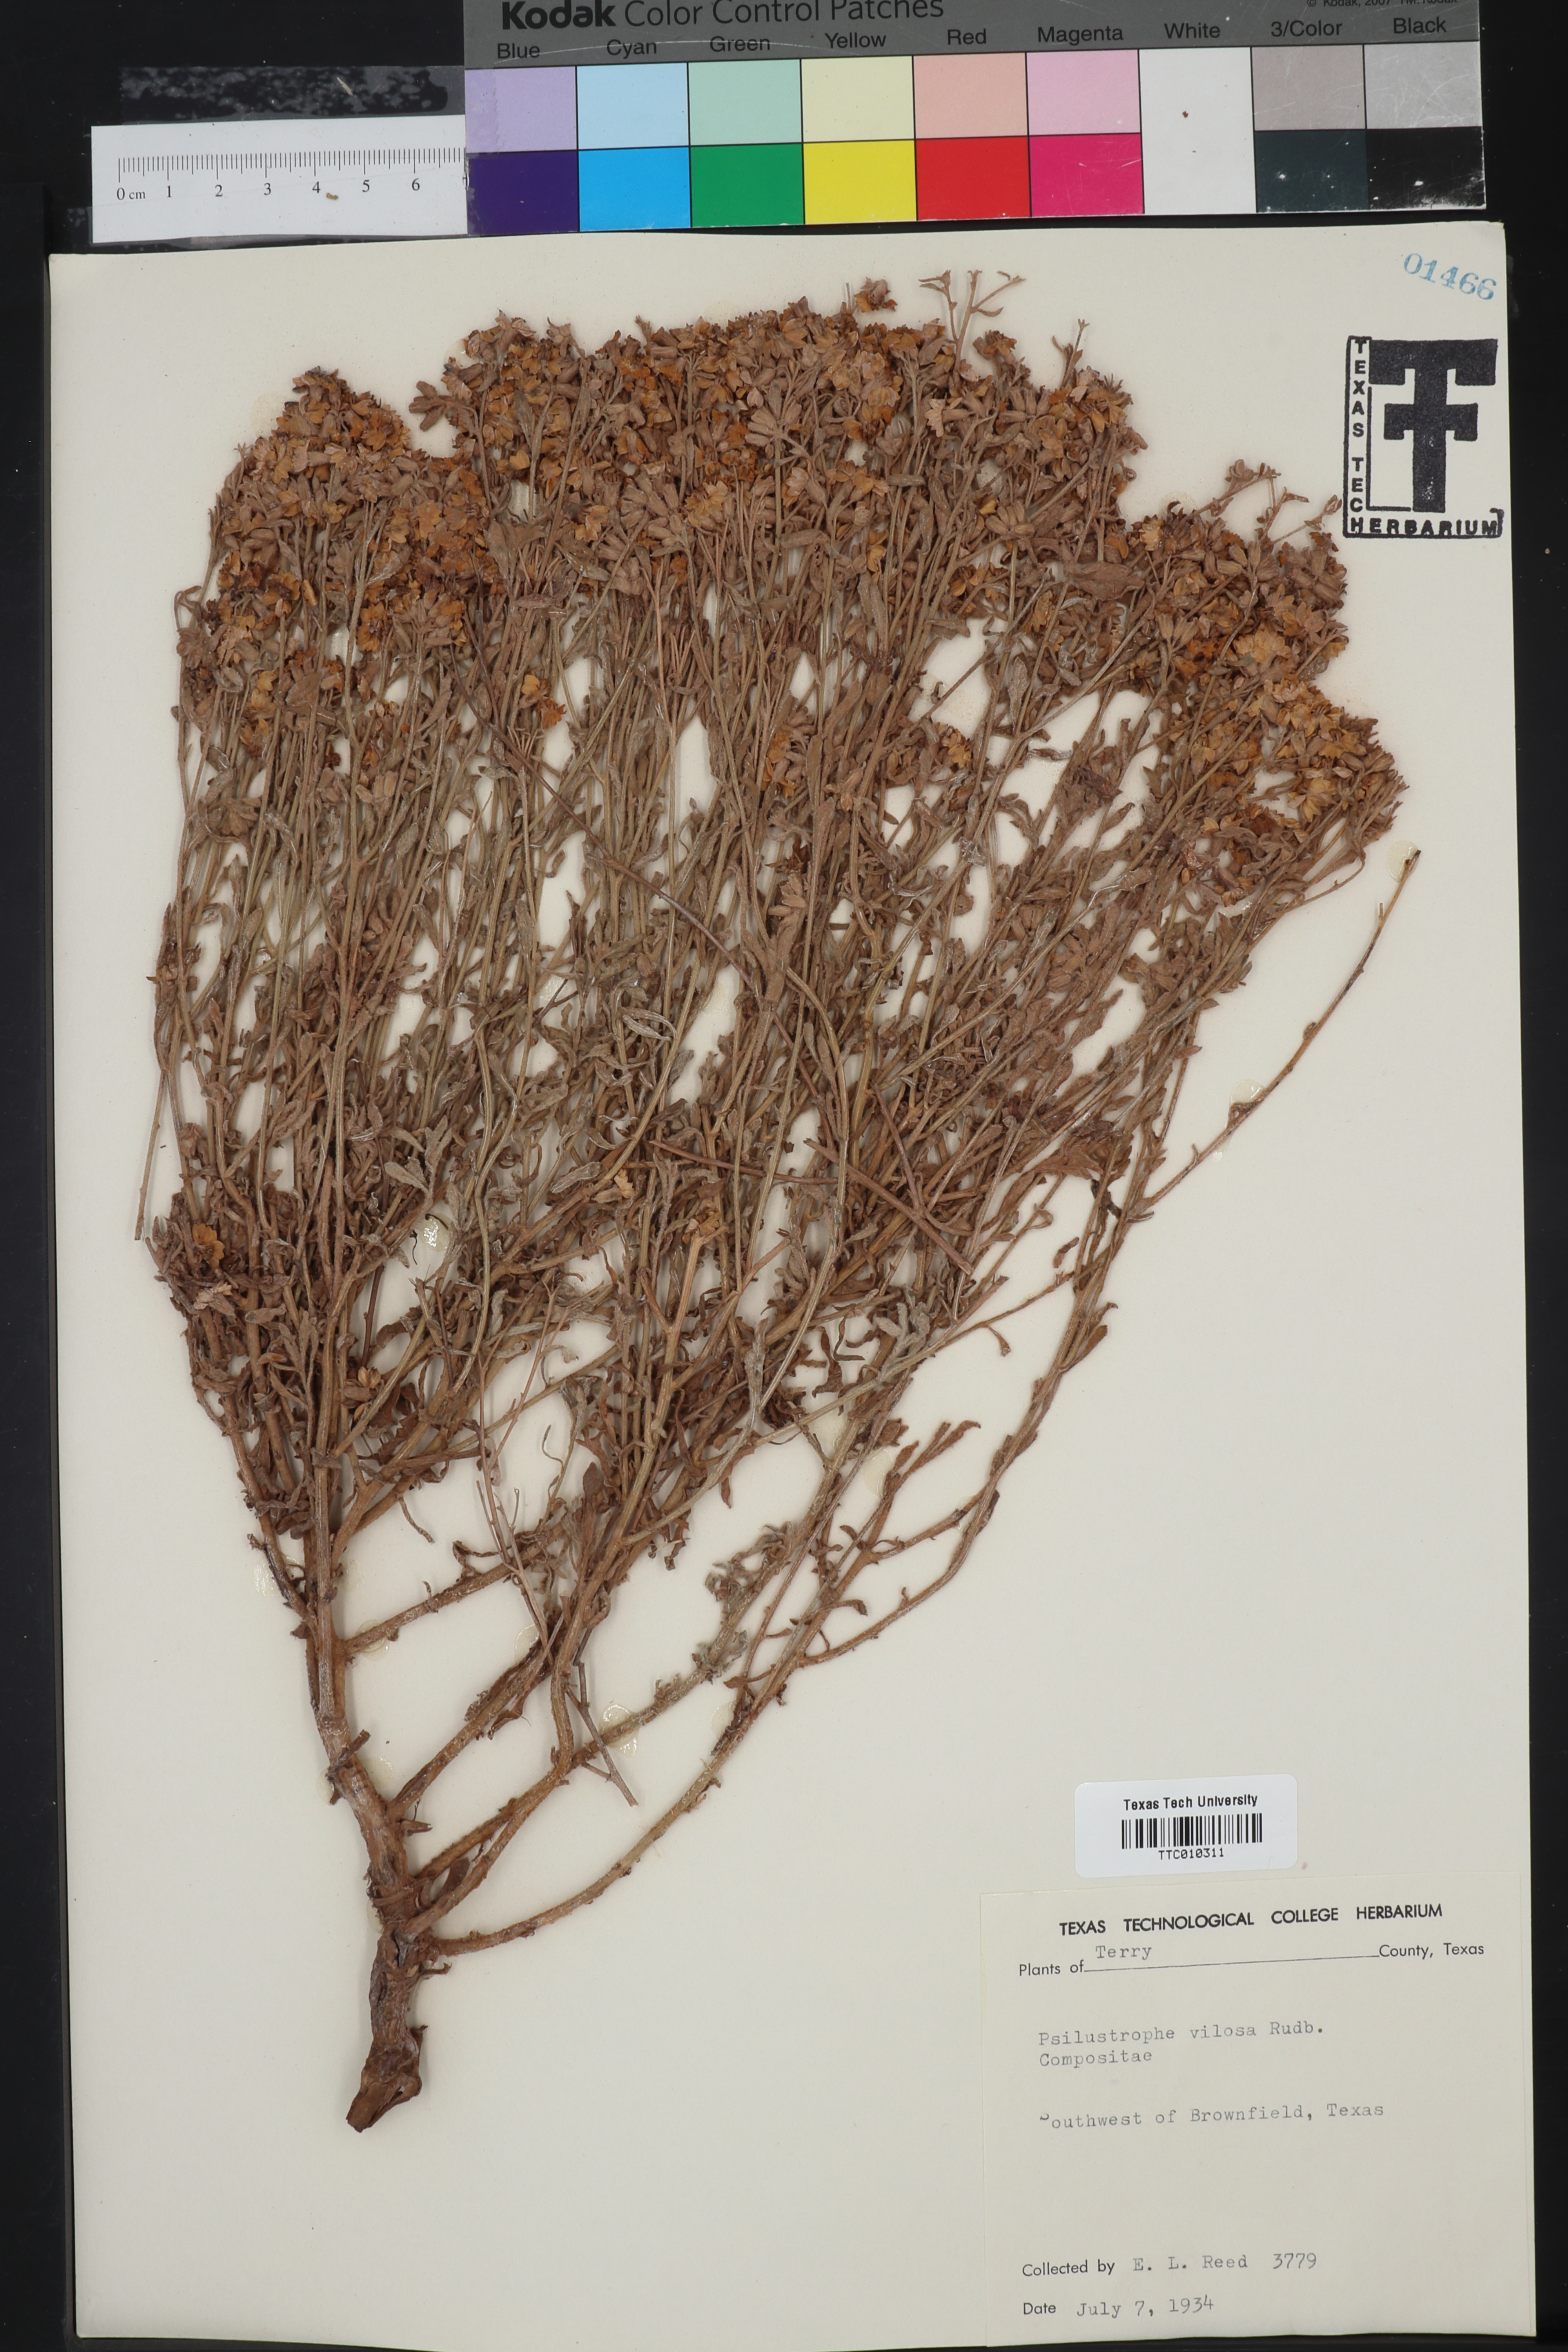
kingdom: Plantae
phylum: Tracheophyta
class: Magnoliopsida
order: Asterales
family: Asteraceae
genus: Psilostrophe
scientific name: Psilostrophe villosa
